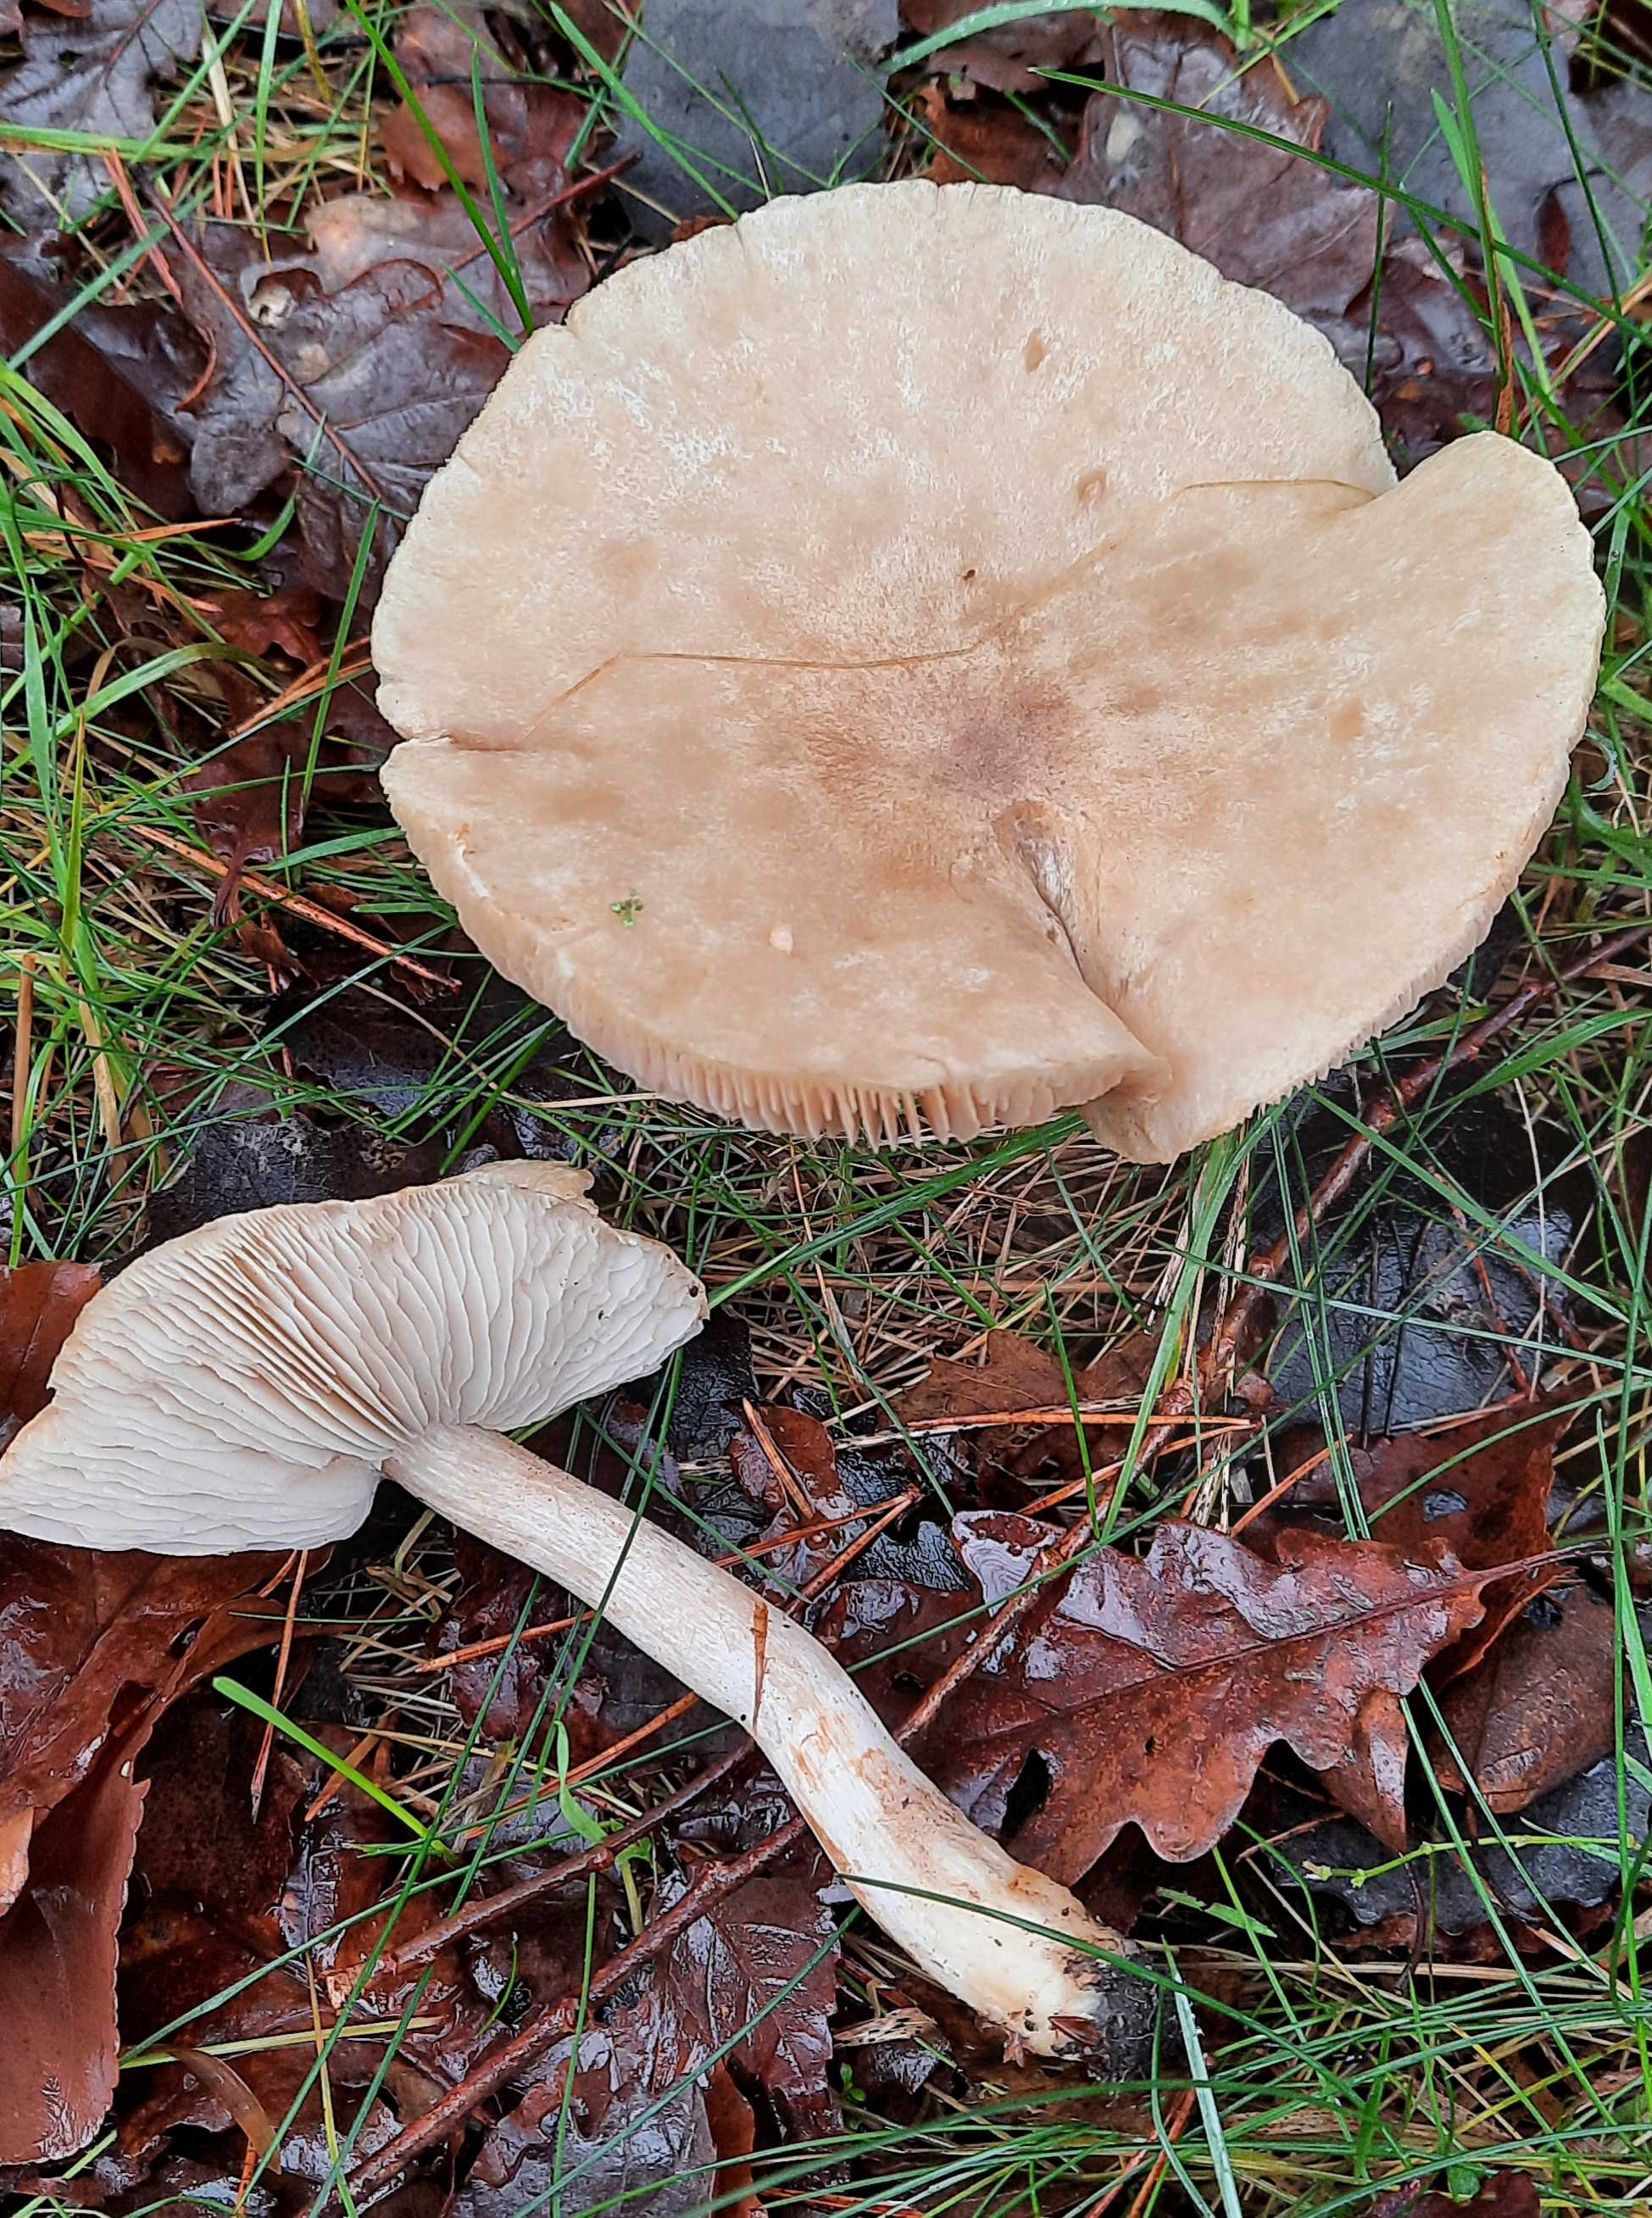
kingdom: Fungi
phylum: Basidiomycota
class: Agaricomycetes
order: Agaricales
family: Tricholomataceae
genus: Tricholoma
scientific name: Tricholoma stiparophyllum
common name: hvid ridderhat
